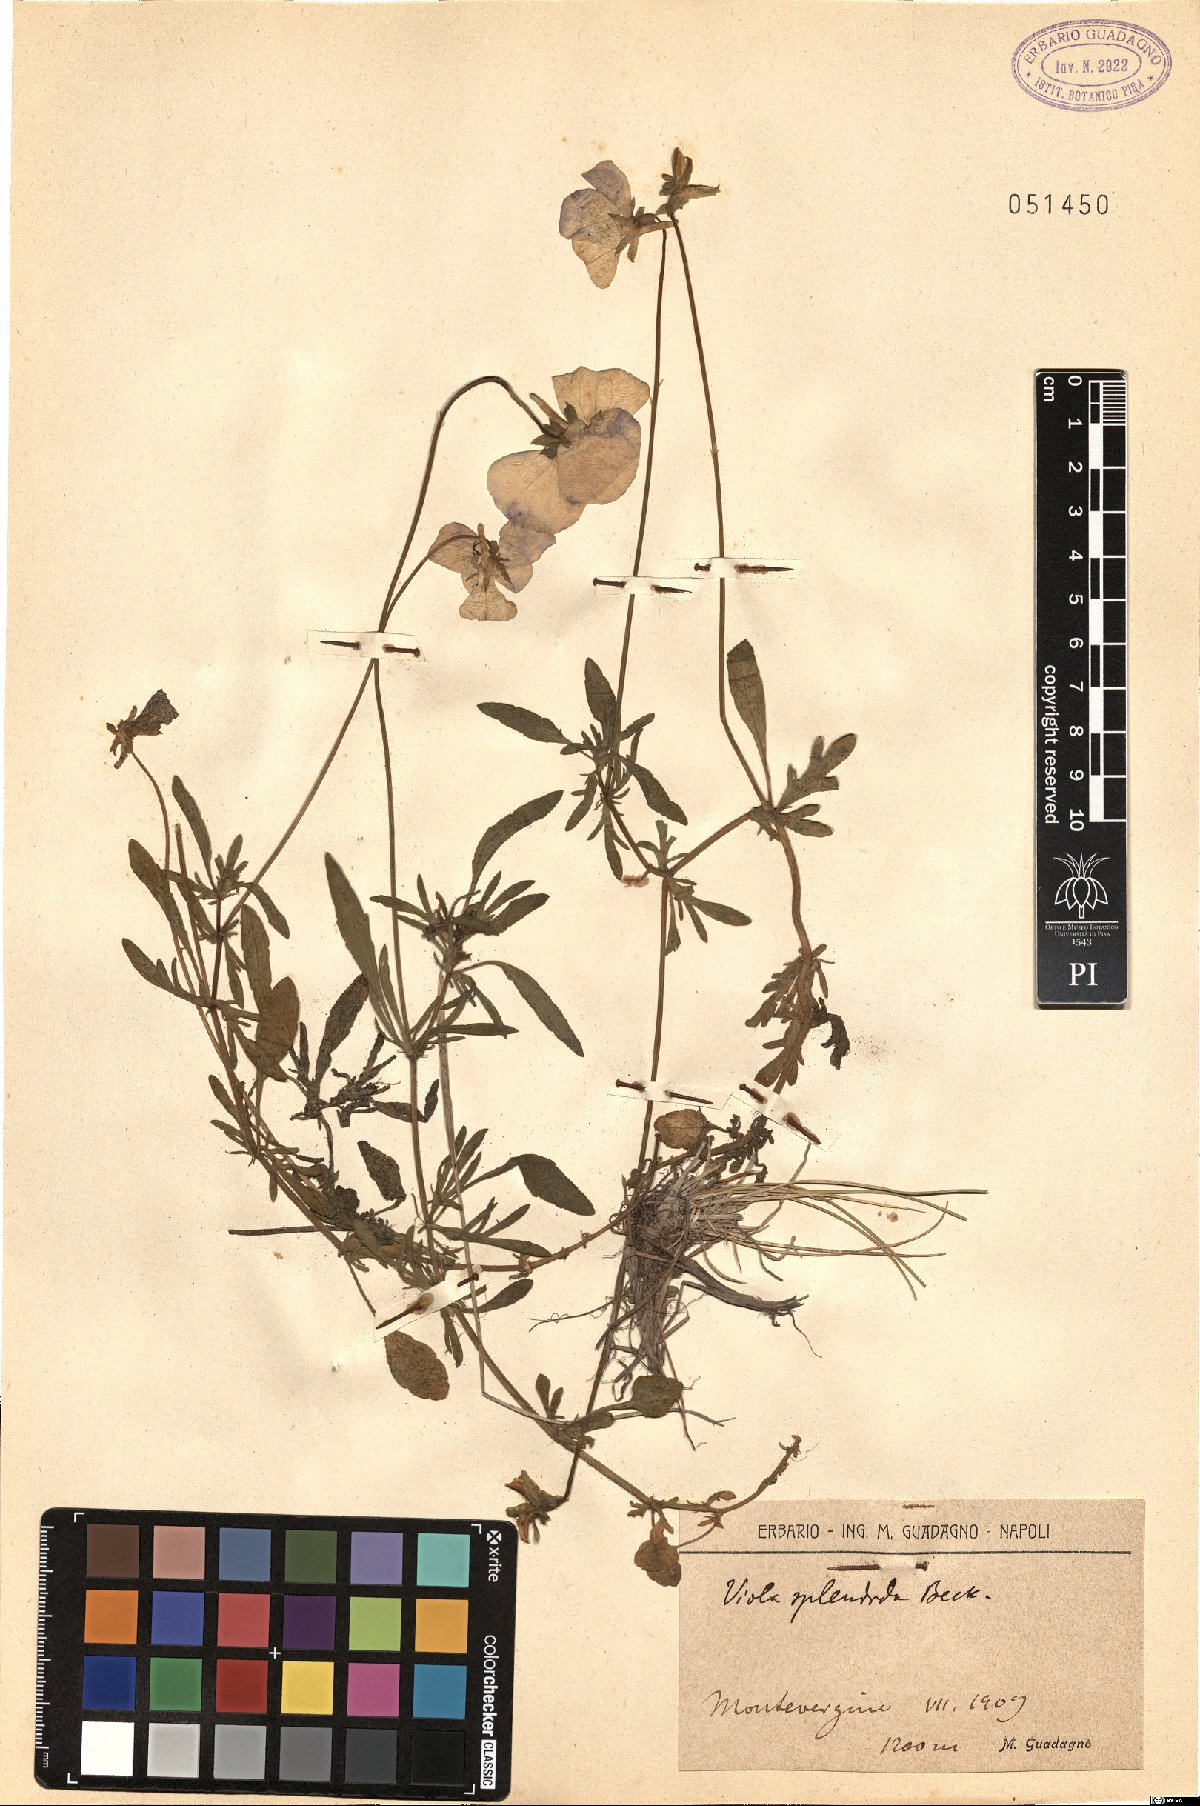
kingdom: Plantae
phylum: Tracheophyta
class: Magnoliopsida
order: Malpighiales
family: Violaceae
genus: Viola
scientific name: Viola aethnensis
